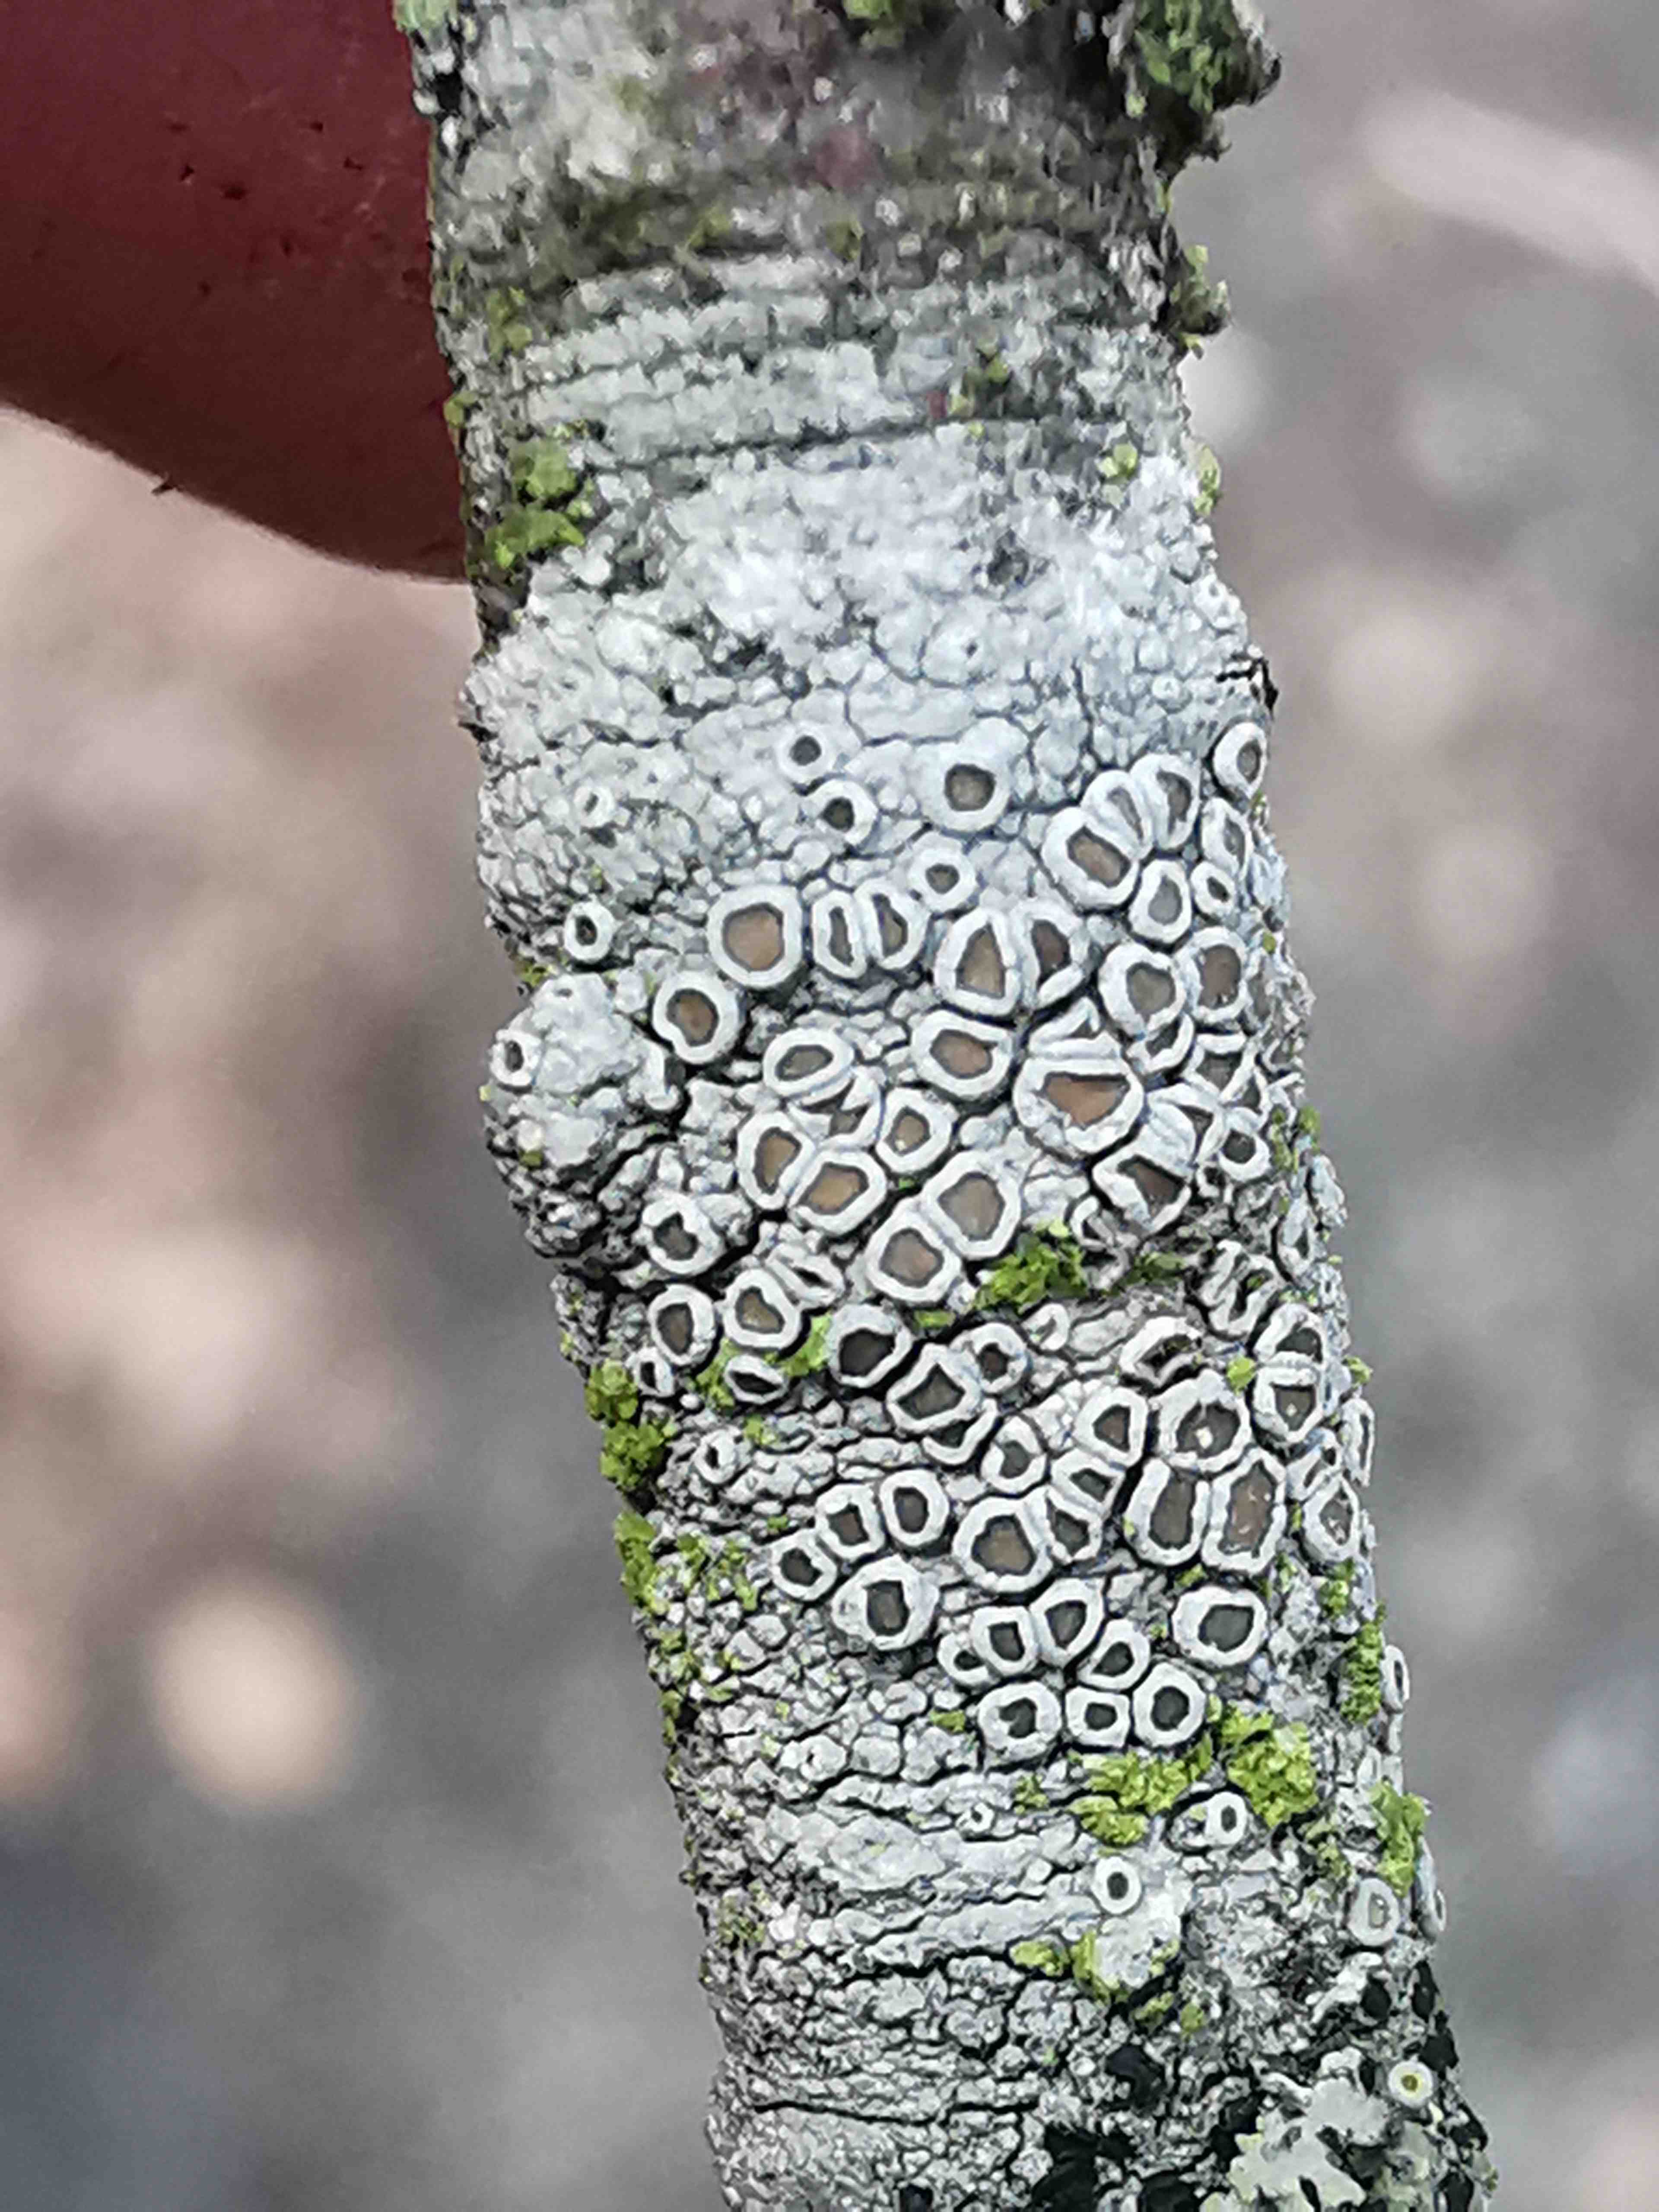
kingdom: Fungi
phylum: Ascomycota
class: Lecanoromycetes
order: Lecanorales
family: Lecanoraceae
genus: Lecanora
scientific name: Lecanora chlarotera
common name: brun kantskivelav
